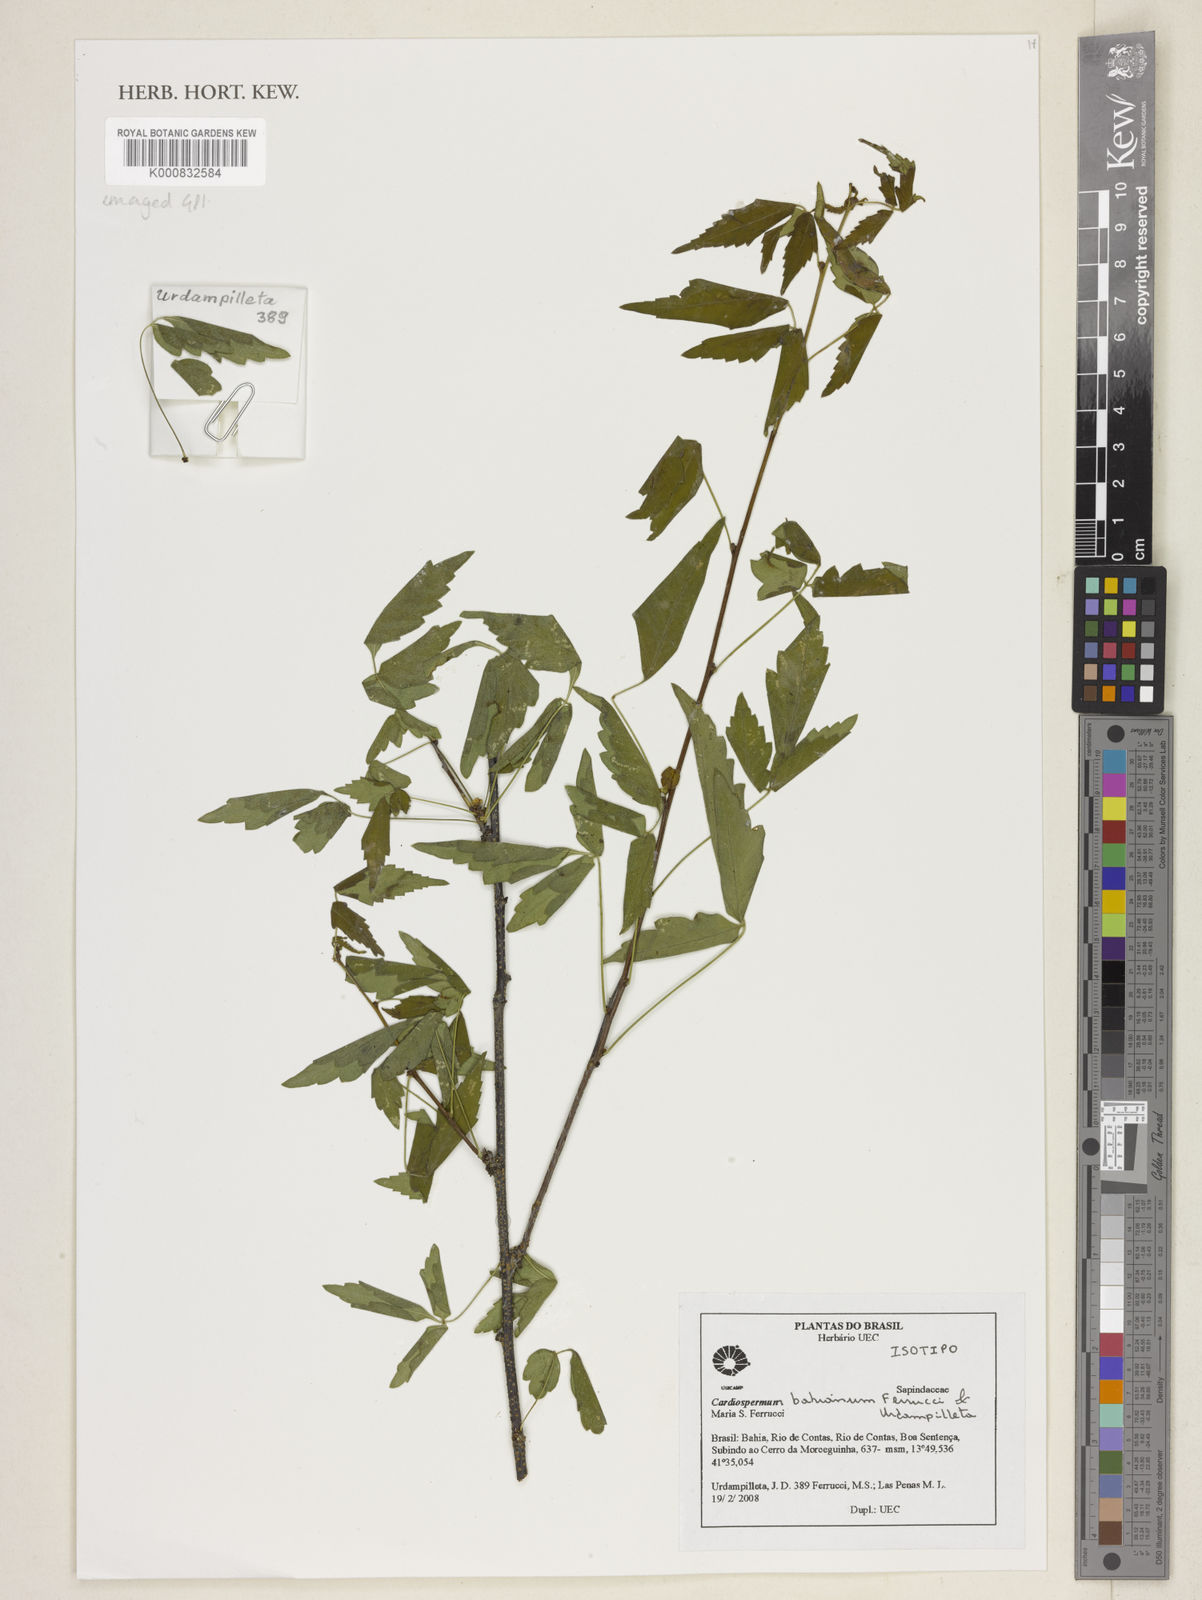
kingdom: Plantae
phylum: Tracheophyta
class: Magnoliopsida
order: Sapindales
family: Sapindaceae
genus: Cardiospermum
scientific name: Cardiospermum bahianum
